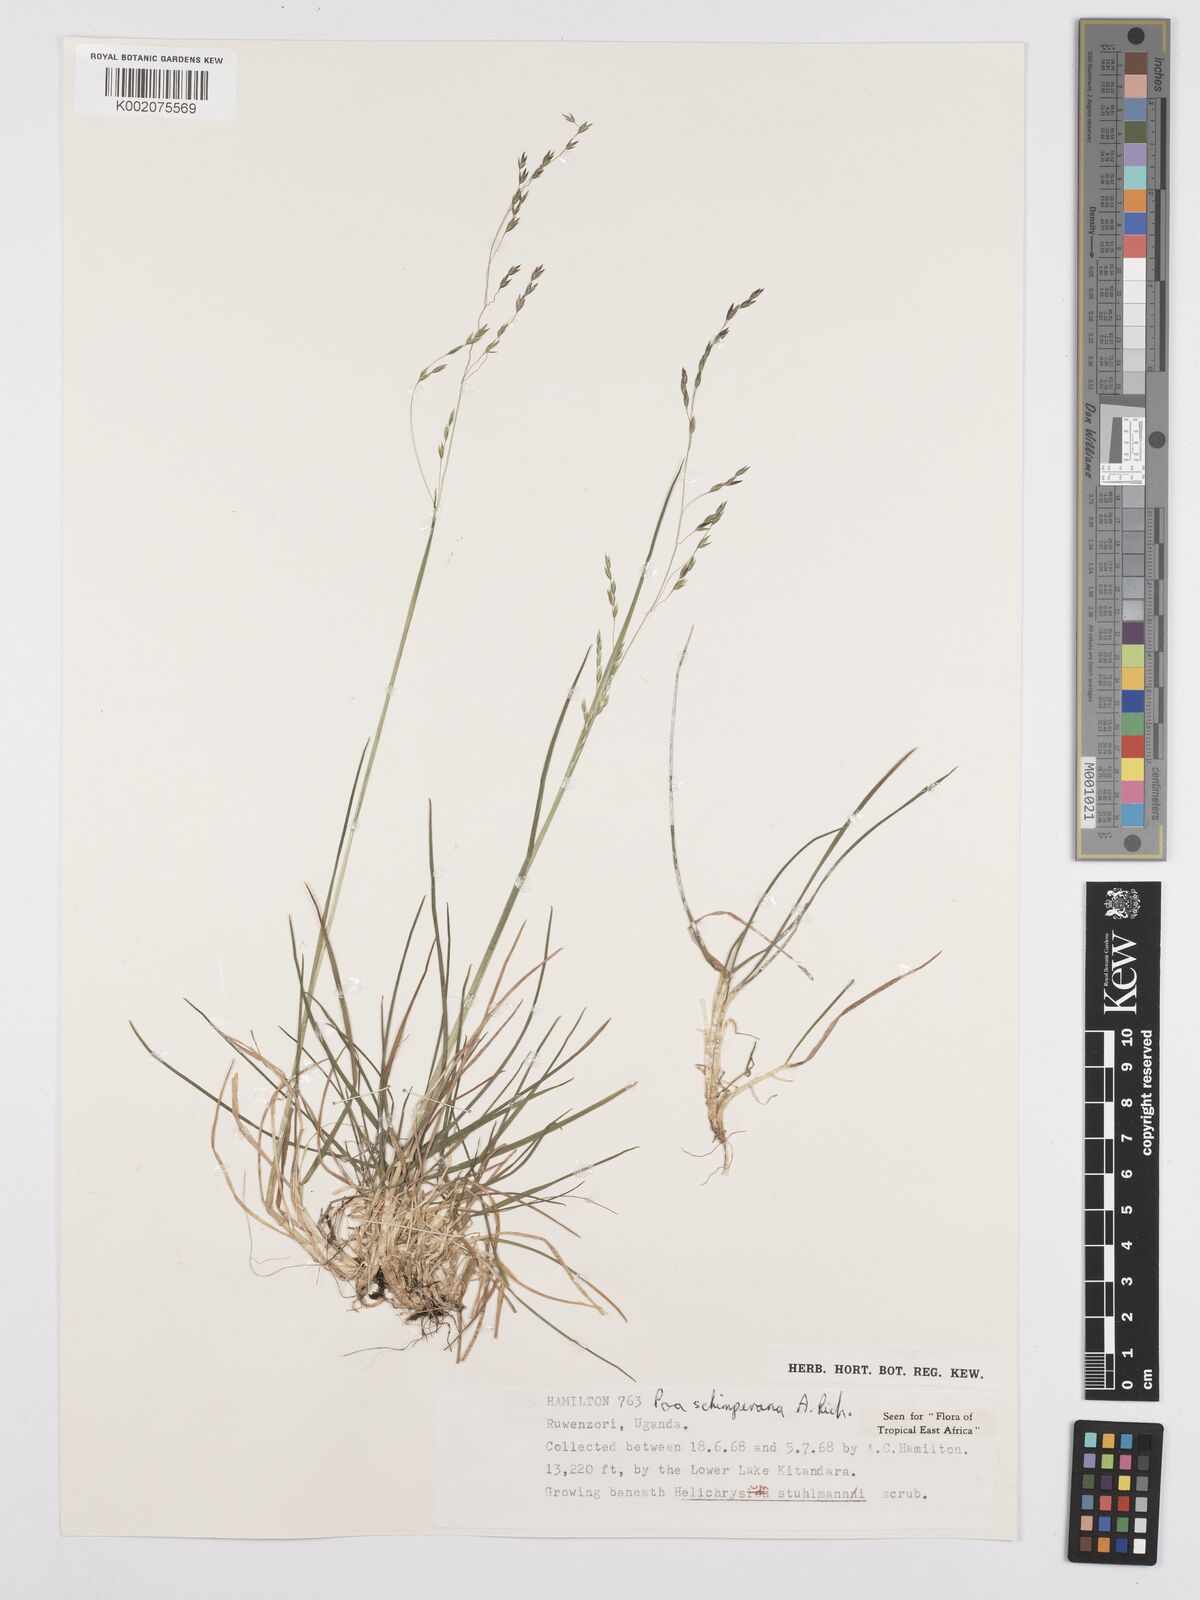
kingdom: Plantae
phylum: Tracheophyta
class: Liliopsida
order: Poales
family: Poaceae
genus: Poa
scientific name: Poa schimperiana
